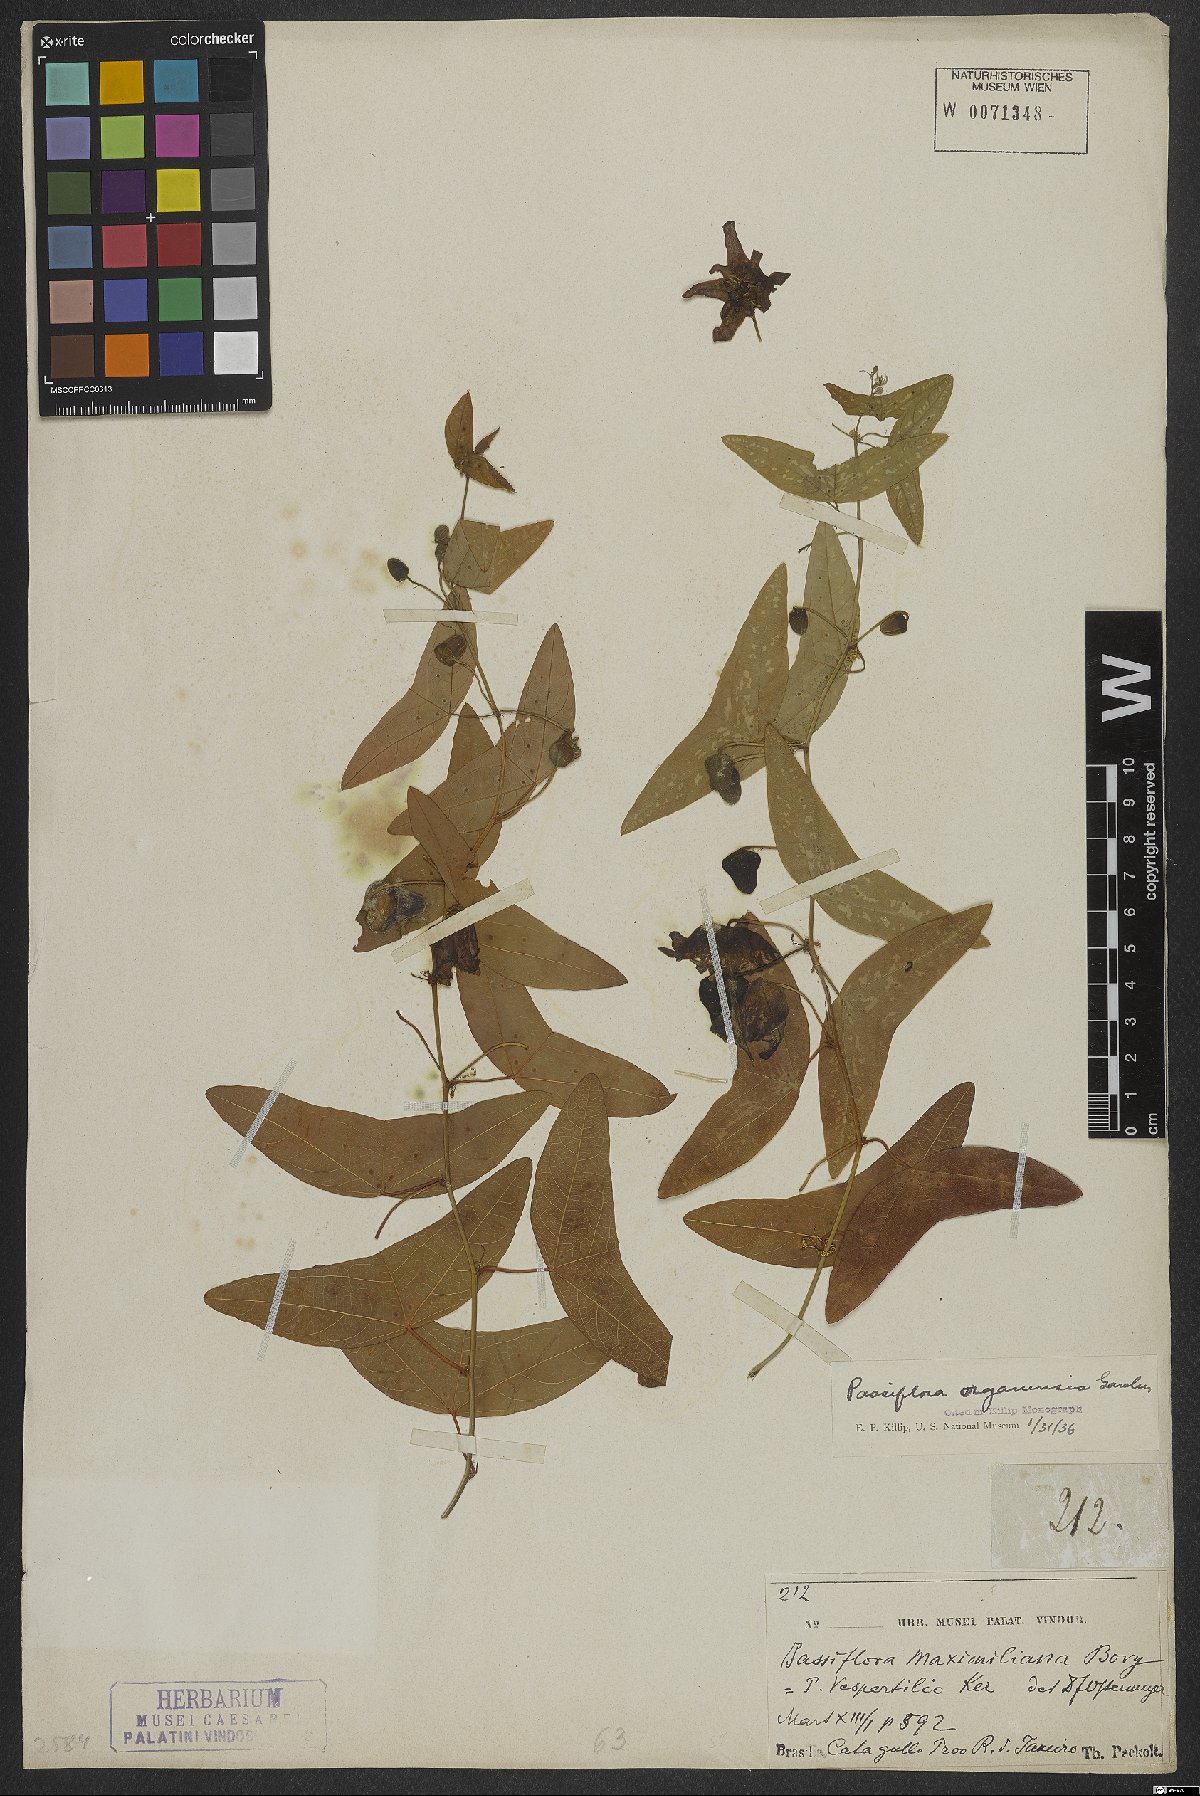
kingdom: Plantae
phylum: Tracheophyta
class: Magnoliopsida
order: Malpighiales
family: Passifloraceae
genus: Passiflora
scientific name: Passiflora porophylla
